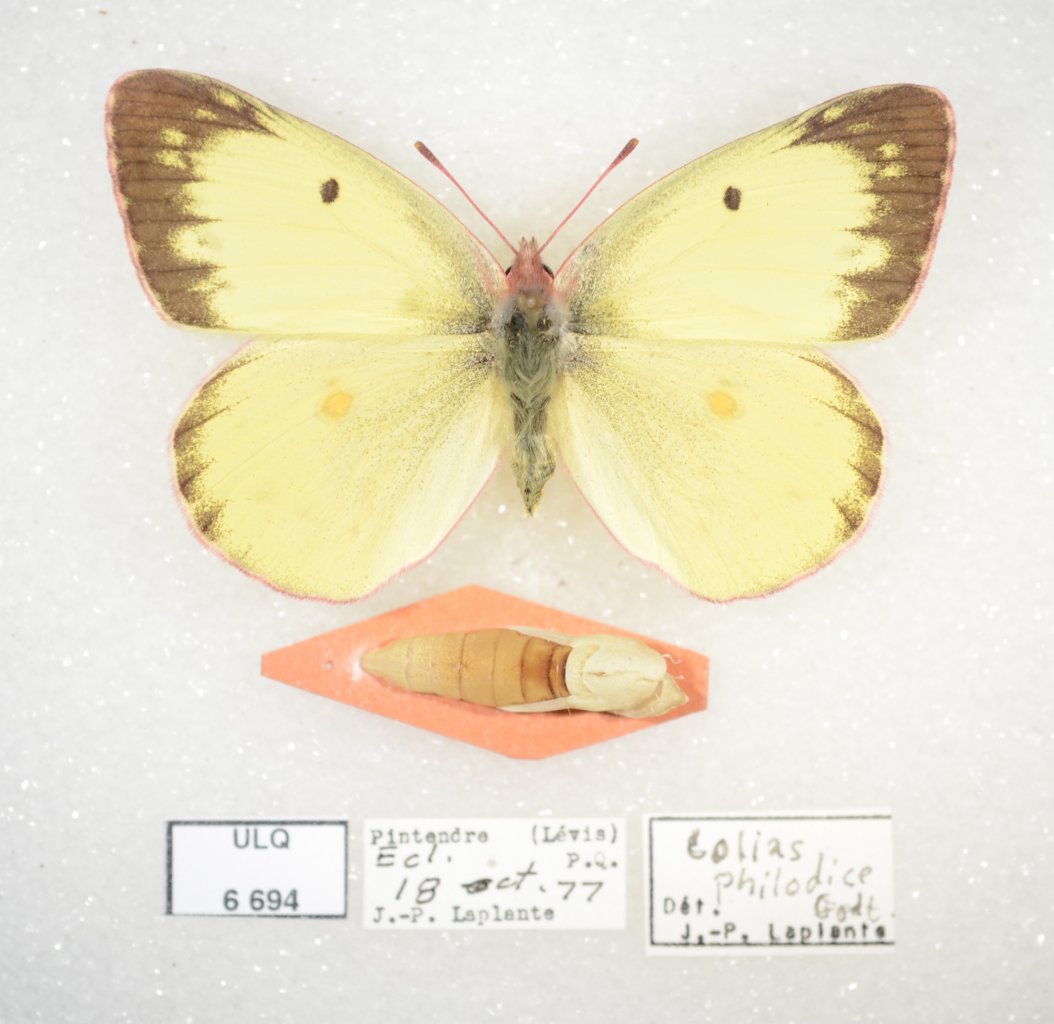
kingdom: Animalia
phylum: Arthropoda
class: Insecta
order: Lepidoptera
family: Pieridae
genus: Colias
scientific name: Colias philodice
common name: Clouded Sulphur
